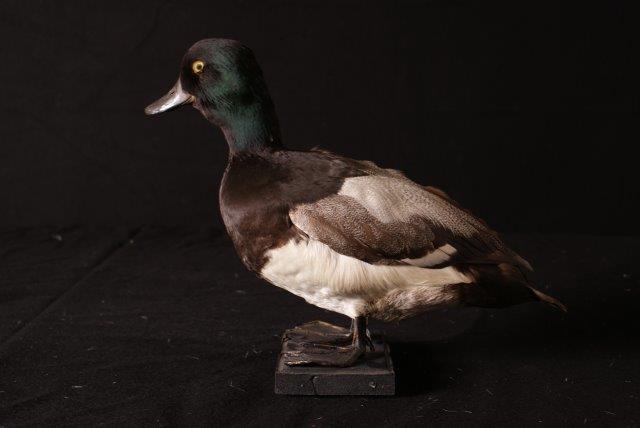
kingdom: Animalia
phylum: Chordata
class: Aves
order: Anseriformes
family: Anatidae
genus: Aythya
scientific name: Aythya marila
